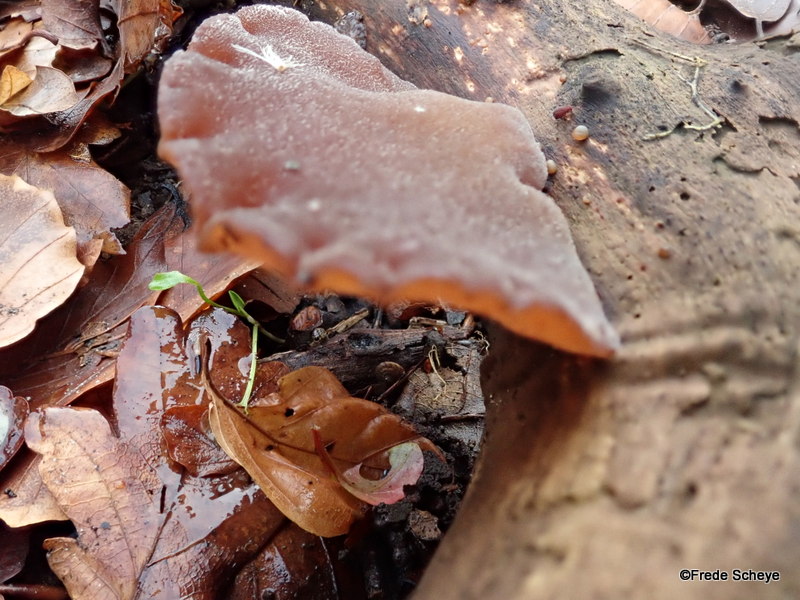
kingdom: Fungi
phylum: Basidiomycota
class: Agaricomycetes
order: Auriculariales
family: Auriculariaceae
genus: Auricularia
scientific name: Auricularia auricula-judae
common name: almindelig judasøre
